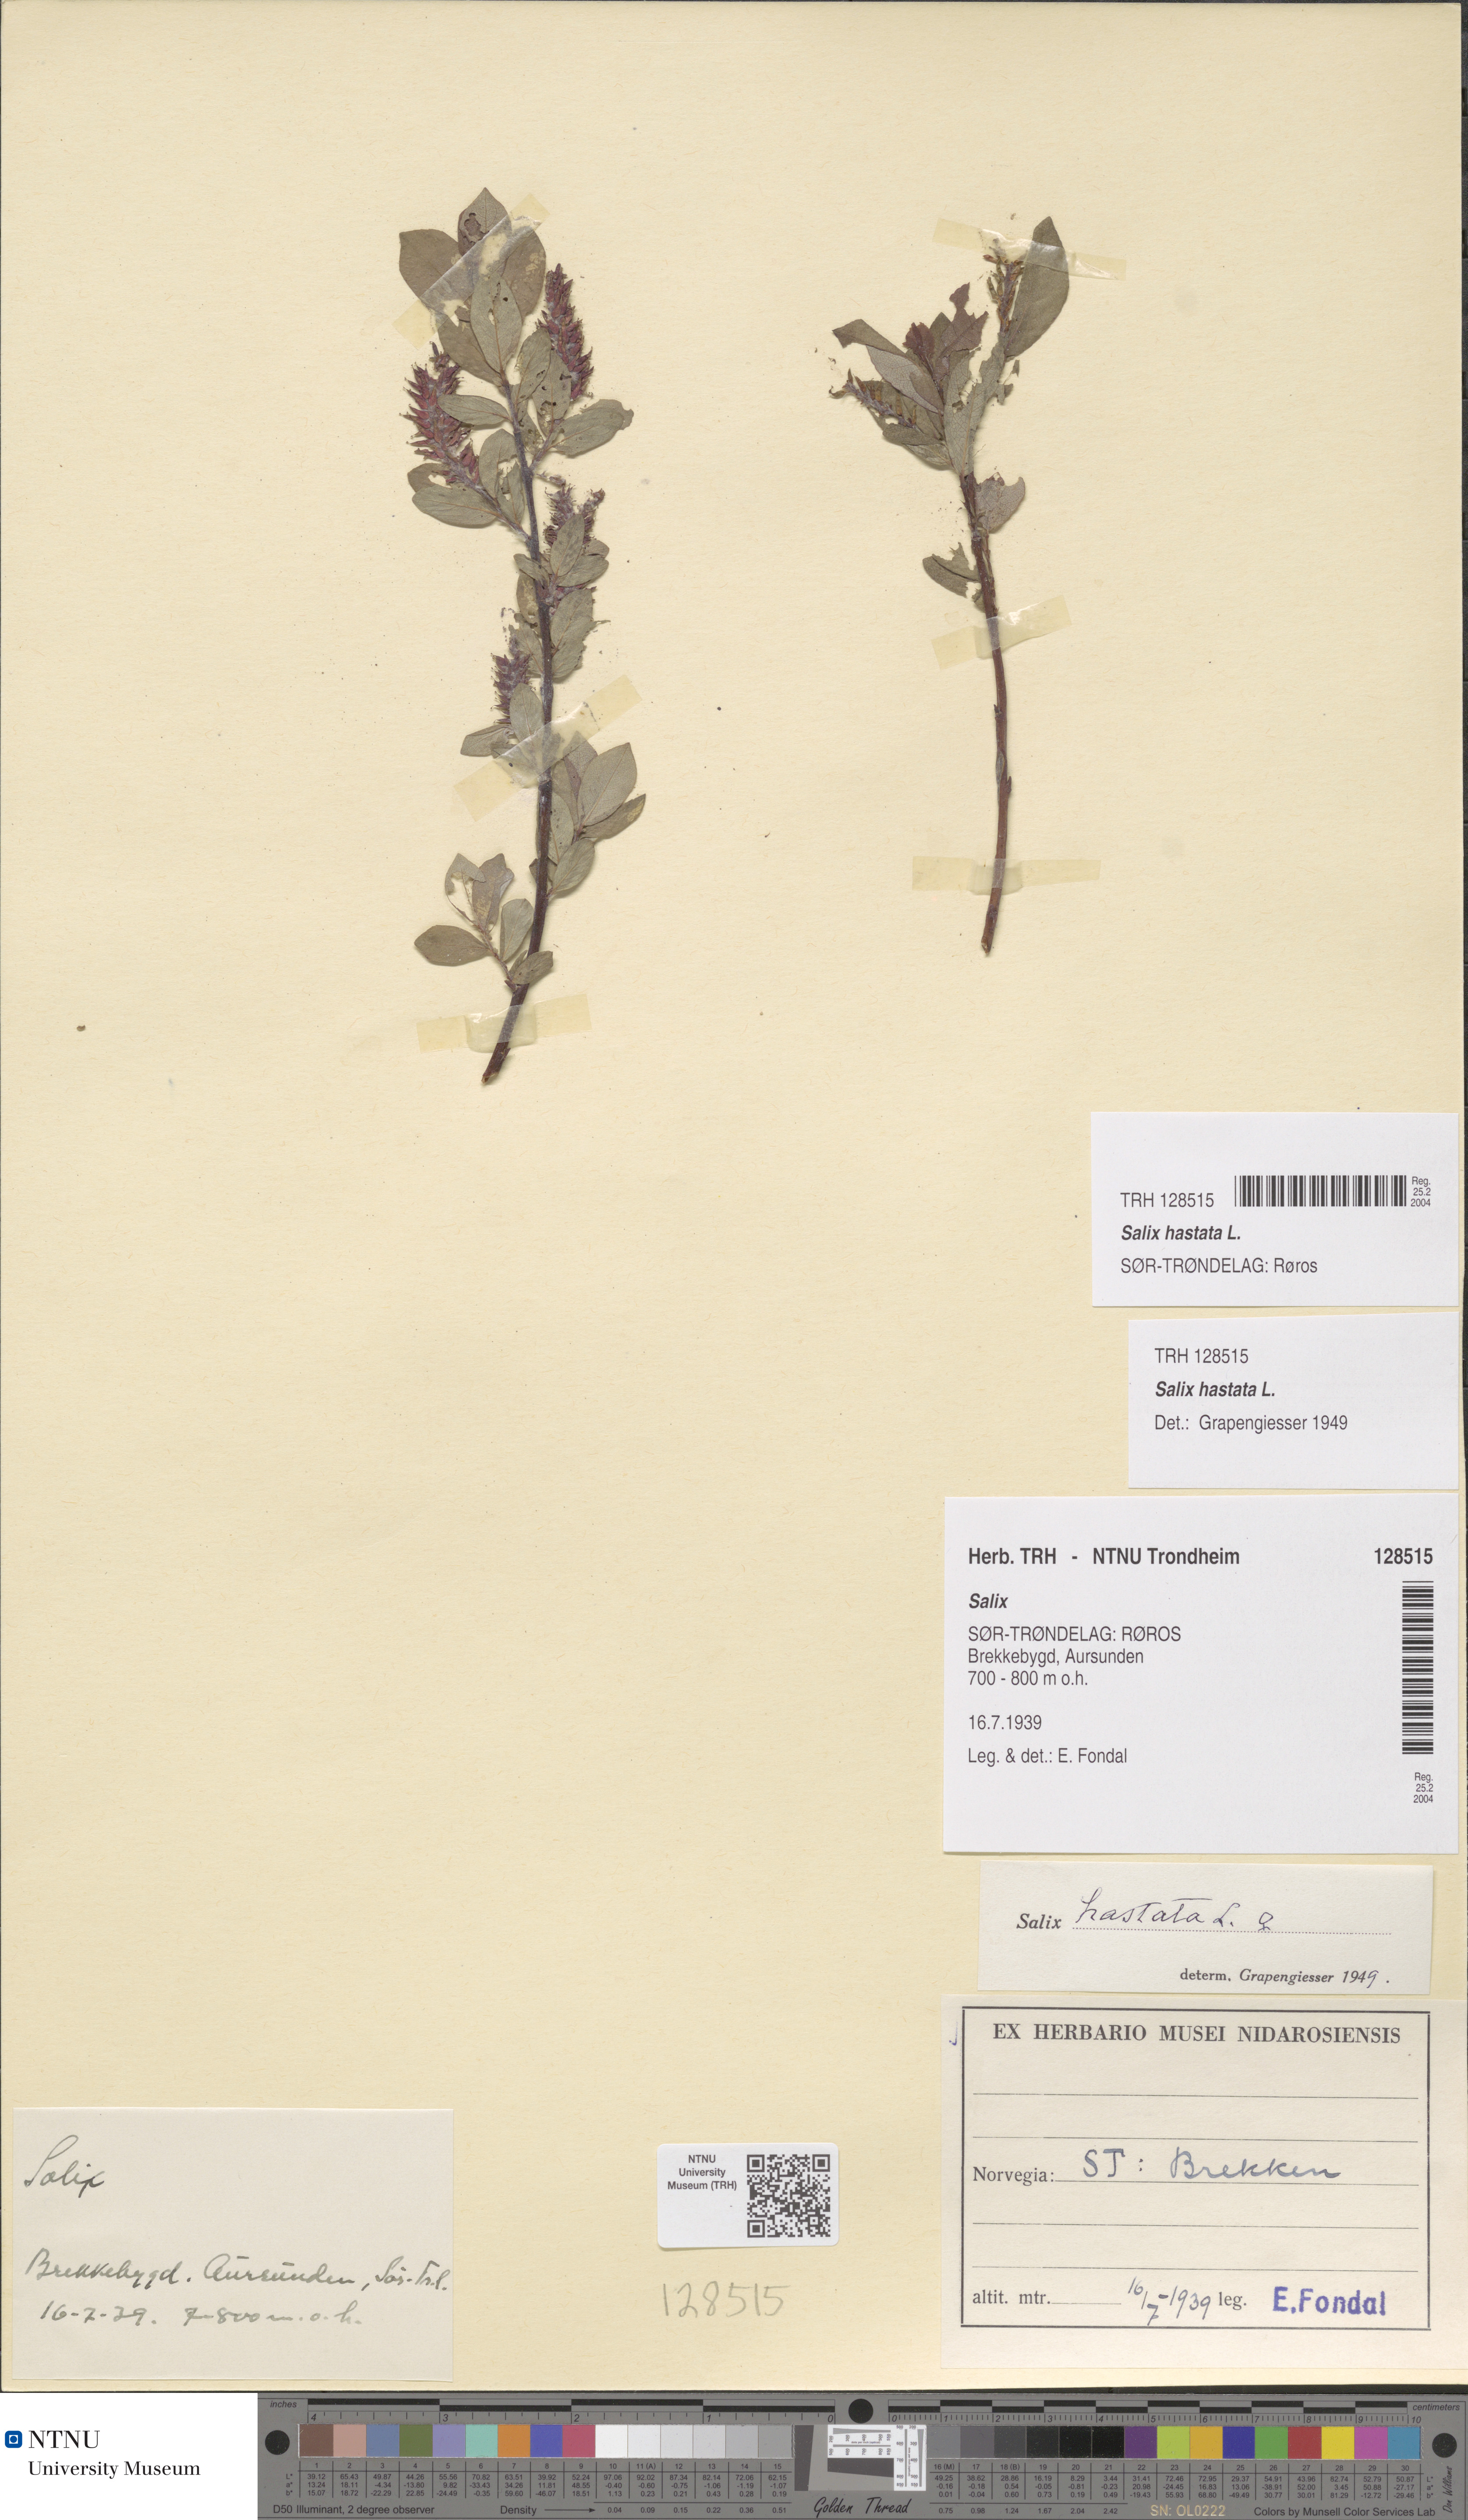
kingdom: Plantae
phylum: Tracheophyta
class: Magnoliopsida
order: Malpighiales
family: Salicaceae
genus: Salix
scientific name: Salix hastata
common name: Halberd willow
